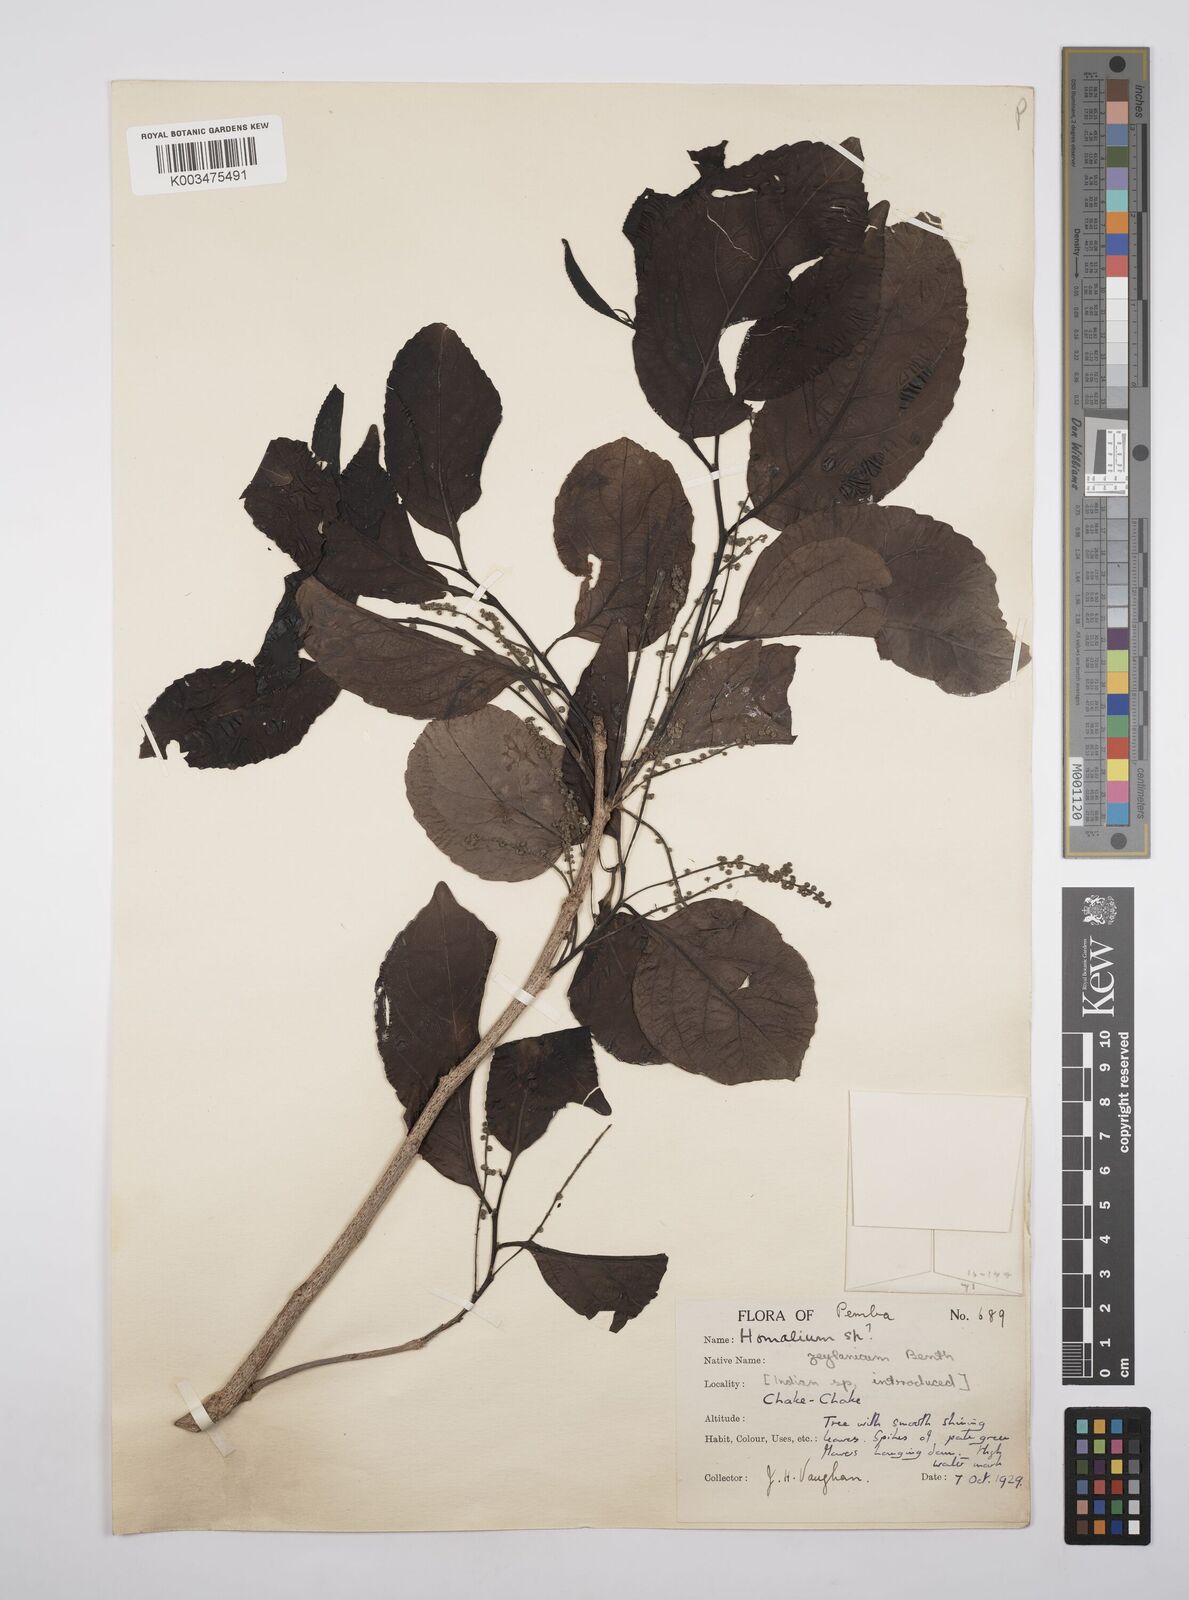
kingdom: Plantae
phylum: Tracheophyta
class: Magnoliopsida
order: Malpighiales
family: Salicaceae
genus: Homalium
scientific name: Homalium
